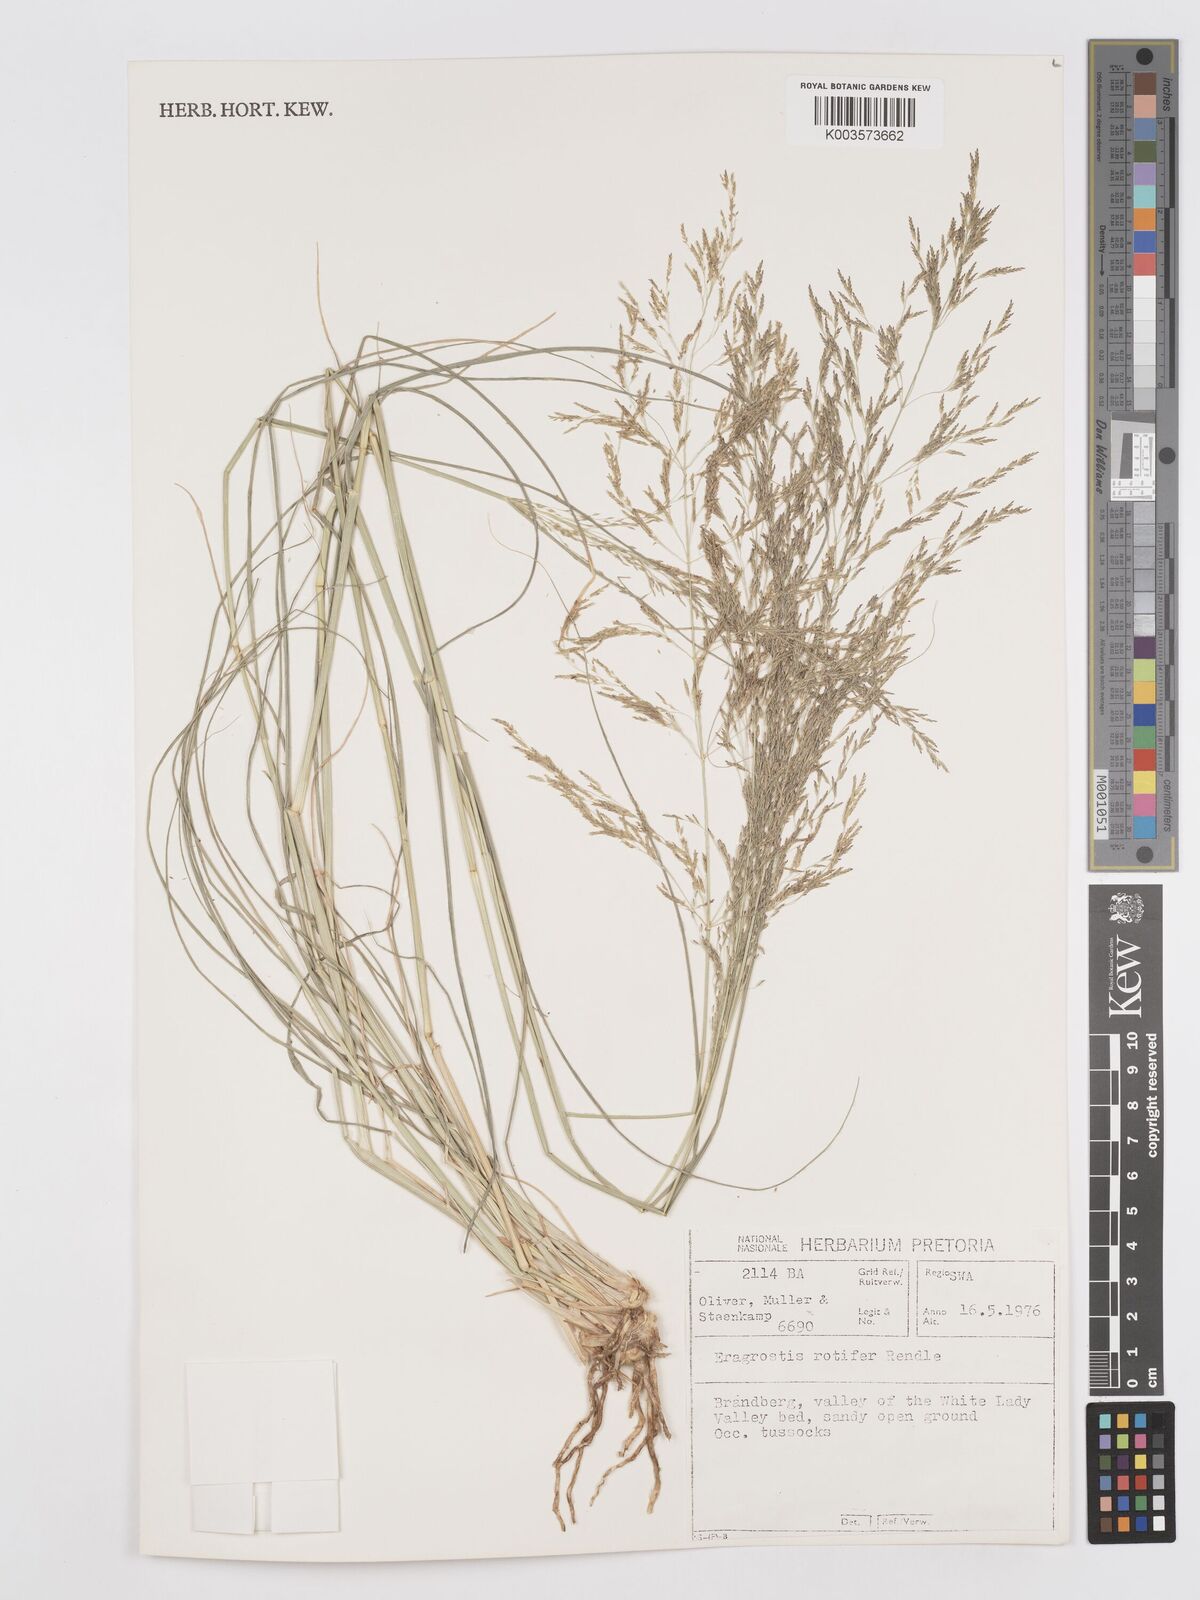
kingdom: Plantae
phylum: Tracheophyta
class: Liliopsida
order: Poales
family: Poaceae
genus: Eragrostis
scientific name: Eragrostis rotifer
